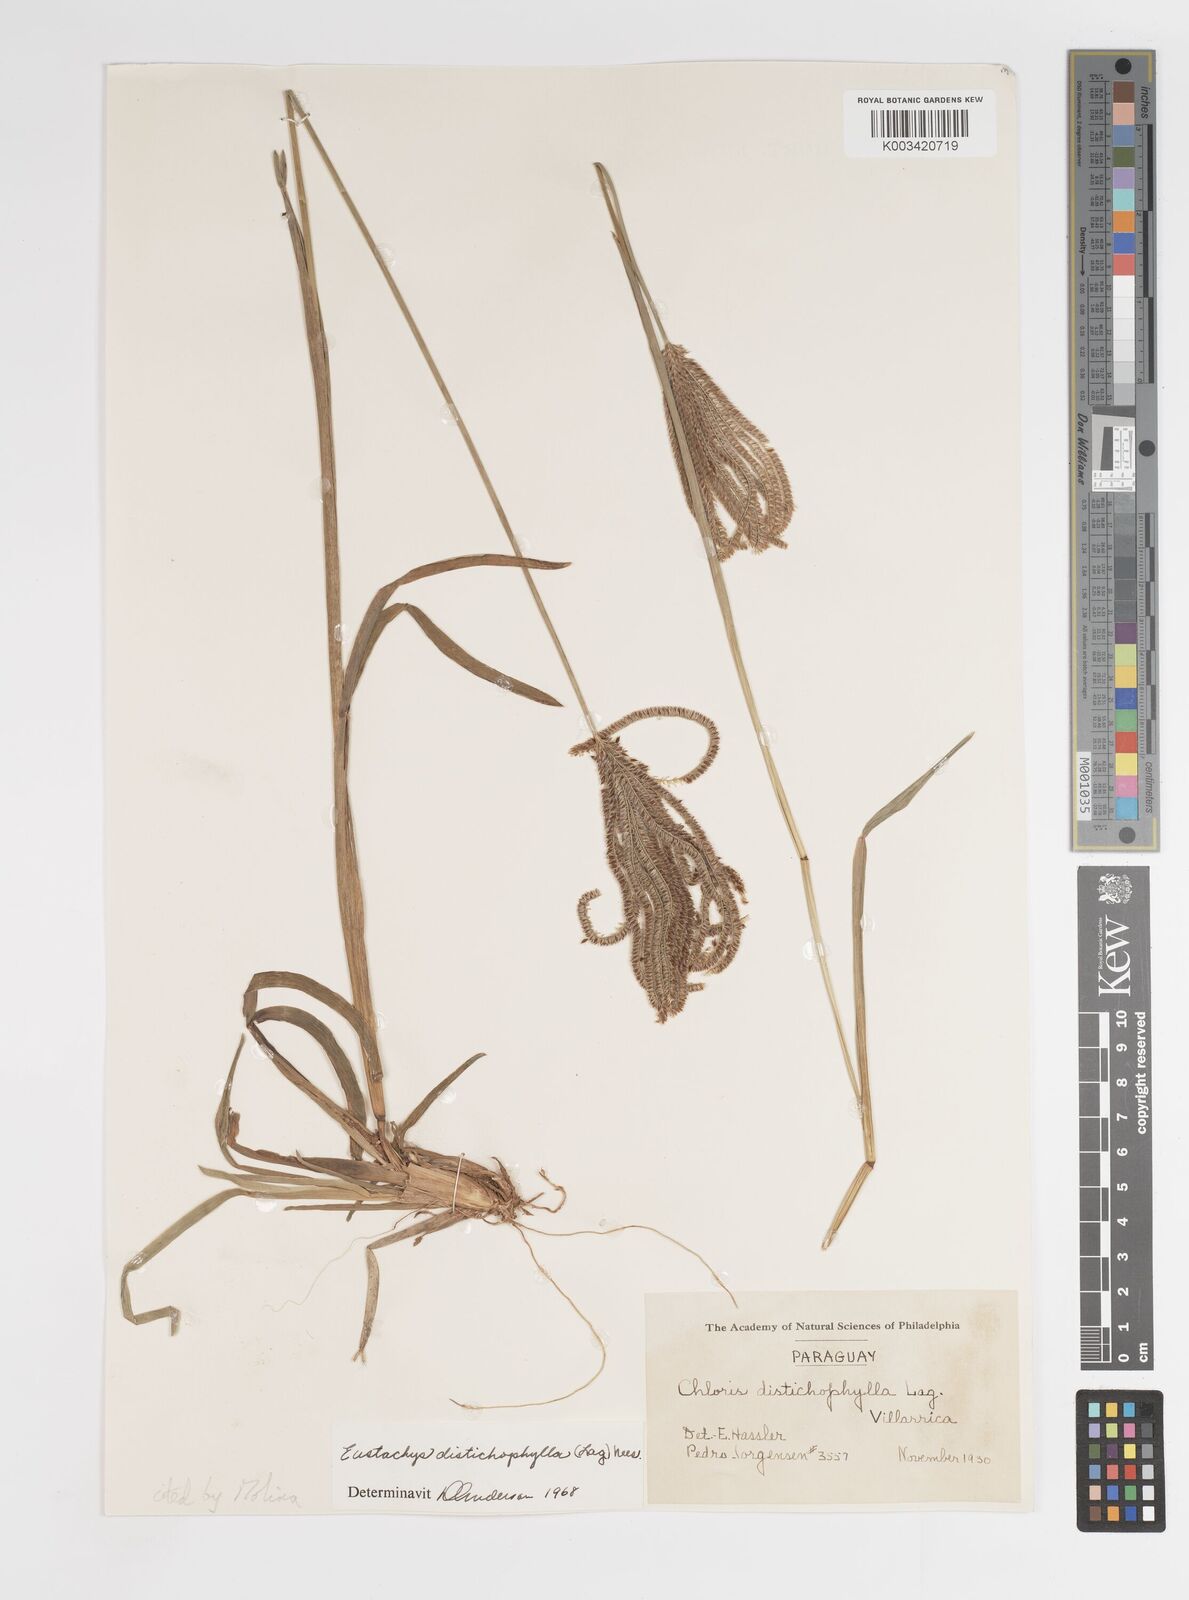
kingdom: Plantae
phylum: Tracheophyta
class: Liliopsida
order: Poales
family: Poaceae
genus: Eustachys
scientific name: Eustachys distichophylla
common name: Weeping fingergrass
